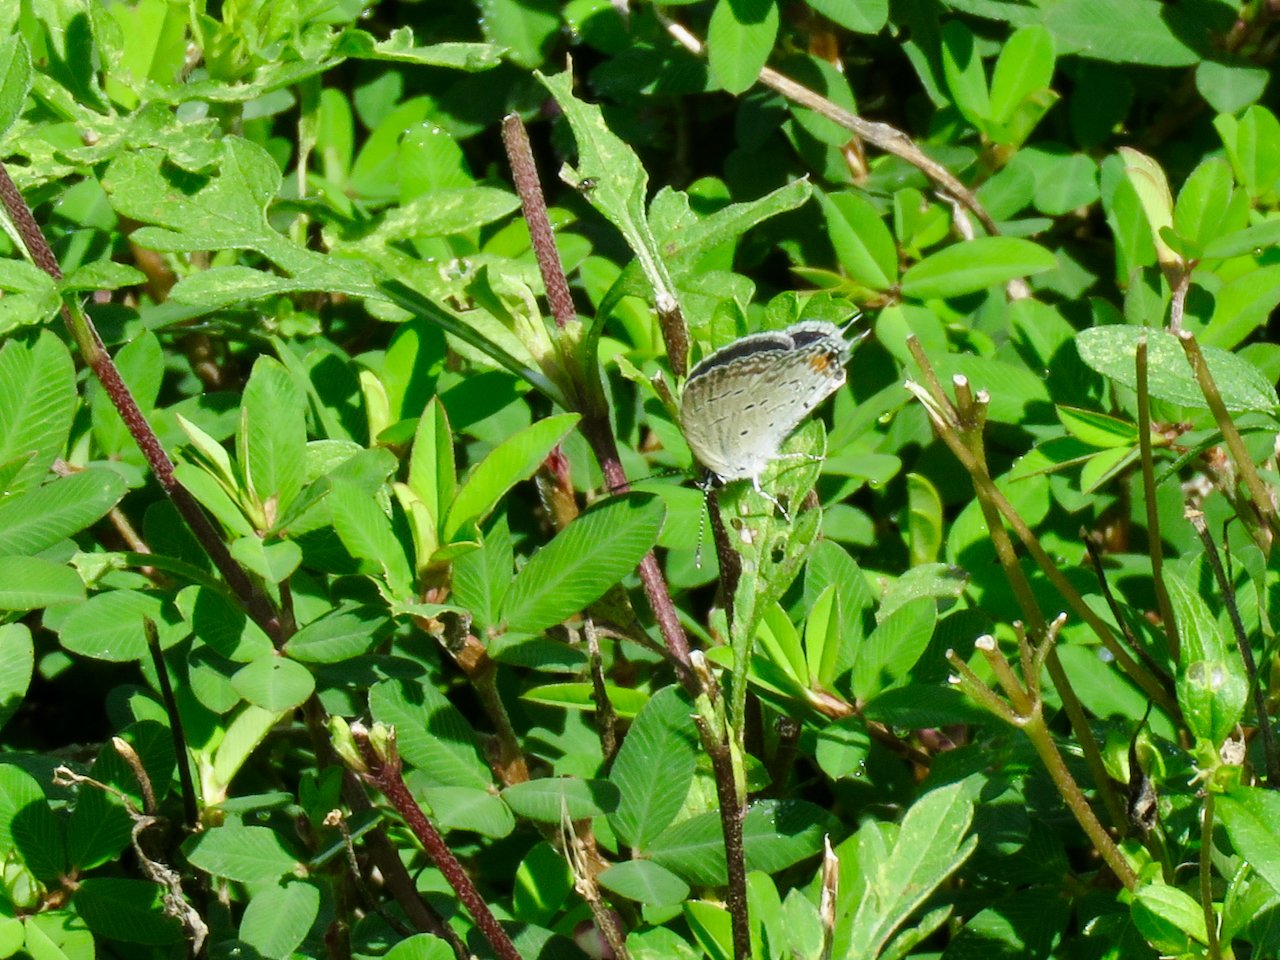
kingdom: Animalia
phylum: Arthropoda
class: Insecta
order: Lepidoptera
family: Lycaenidae
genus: Elkalyce
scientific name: Elkalyce comyntas
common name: Eastern Tailed-Blue
